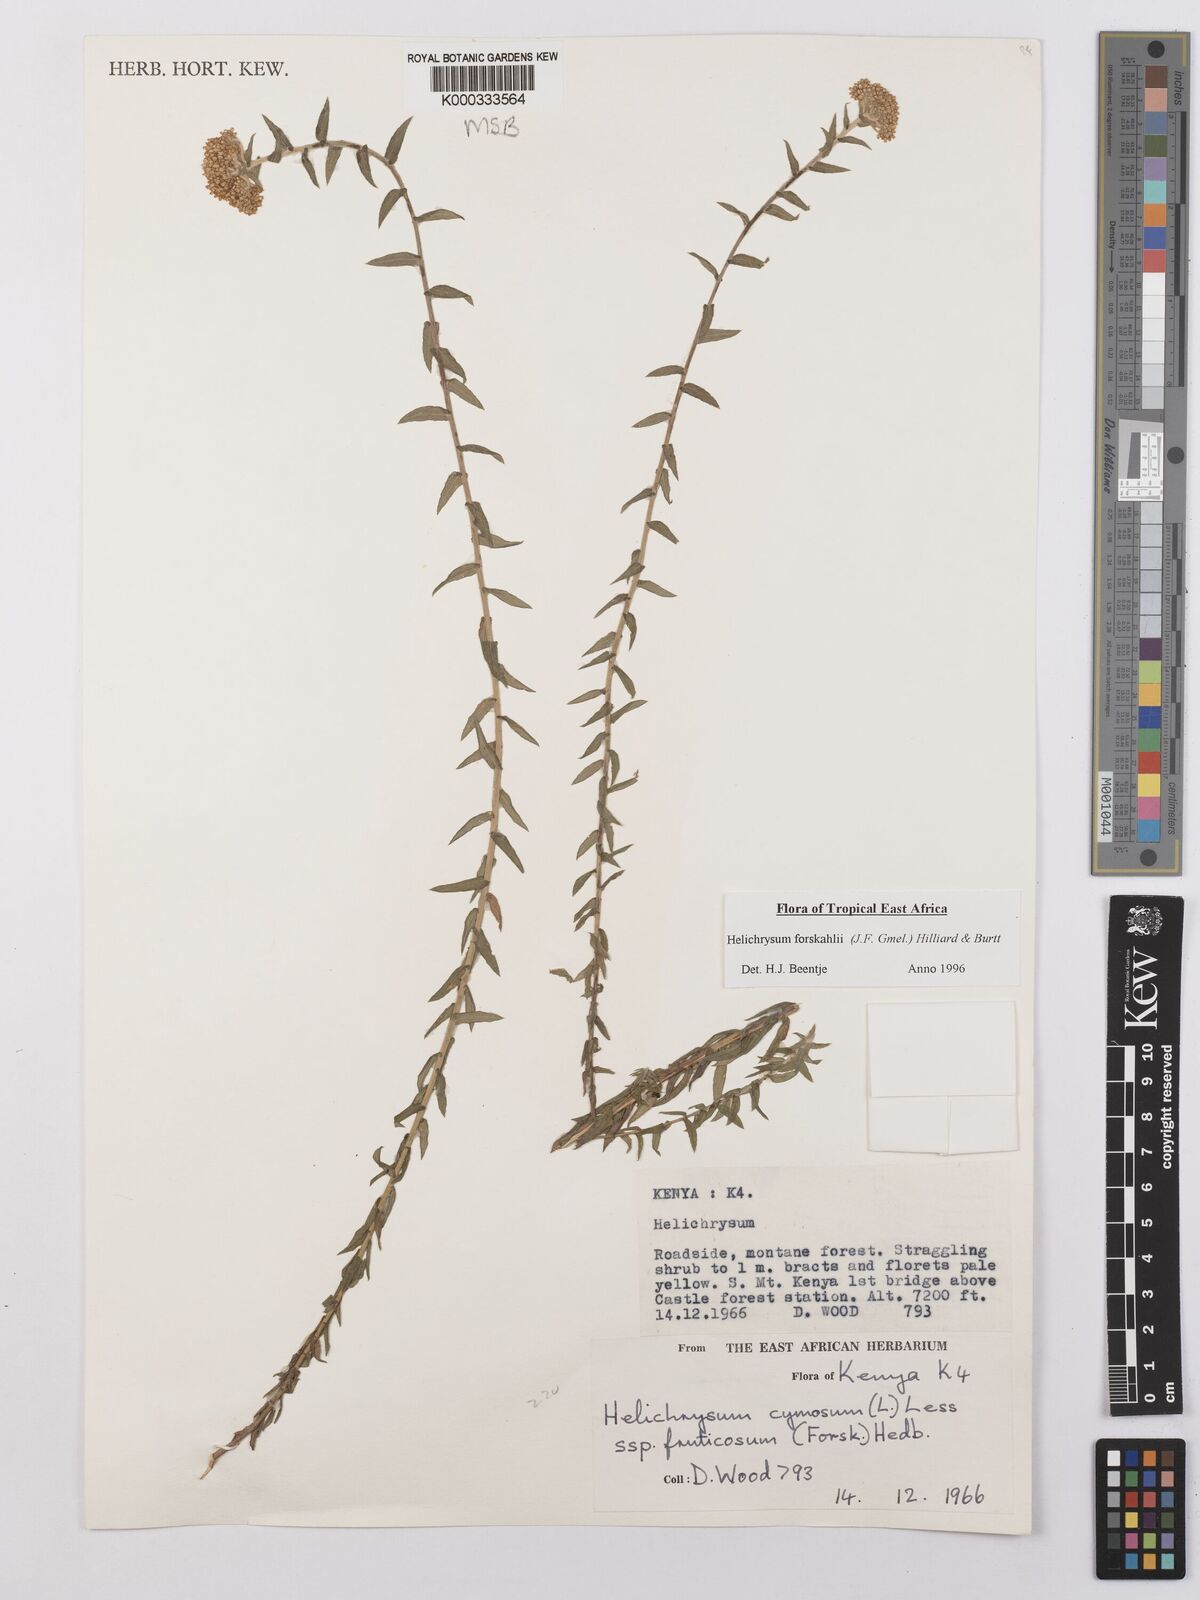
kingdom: Plantae
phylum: Tracheophyta
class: Magnoliopsida
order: Asterales
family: Asteraceae
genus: Helichrysum
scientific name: Helichrysum
